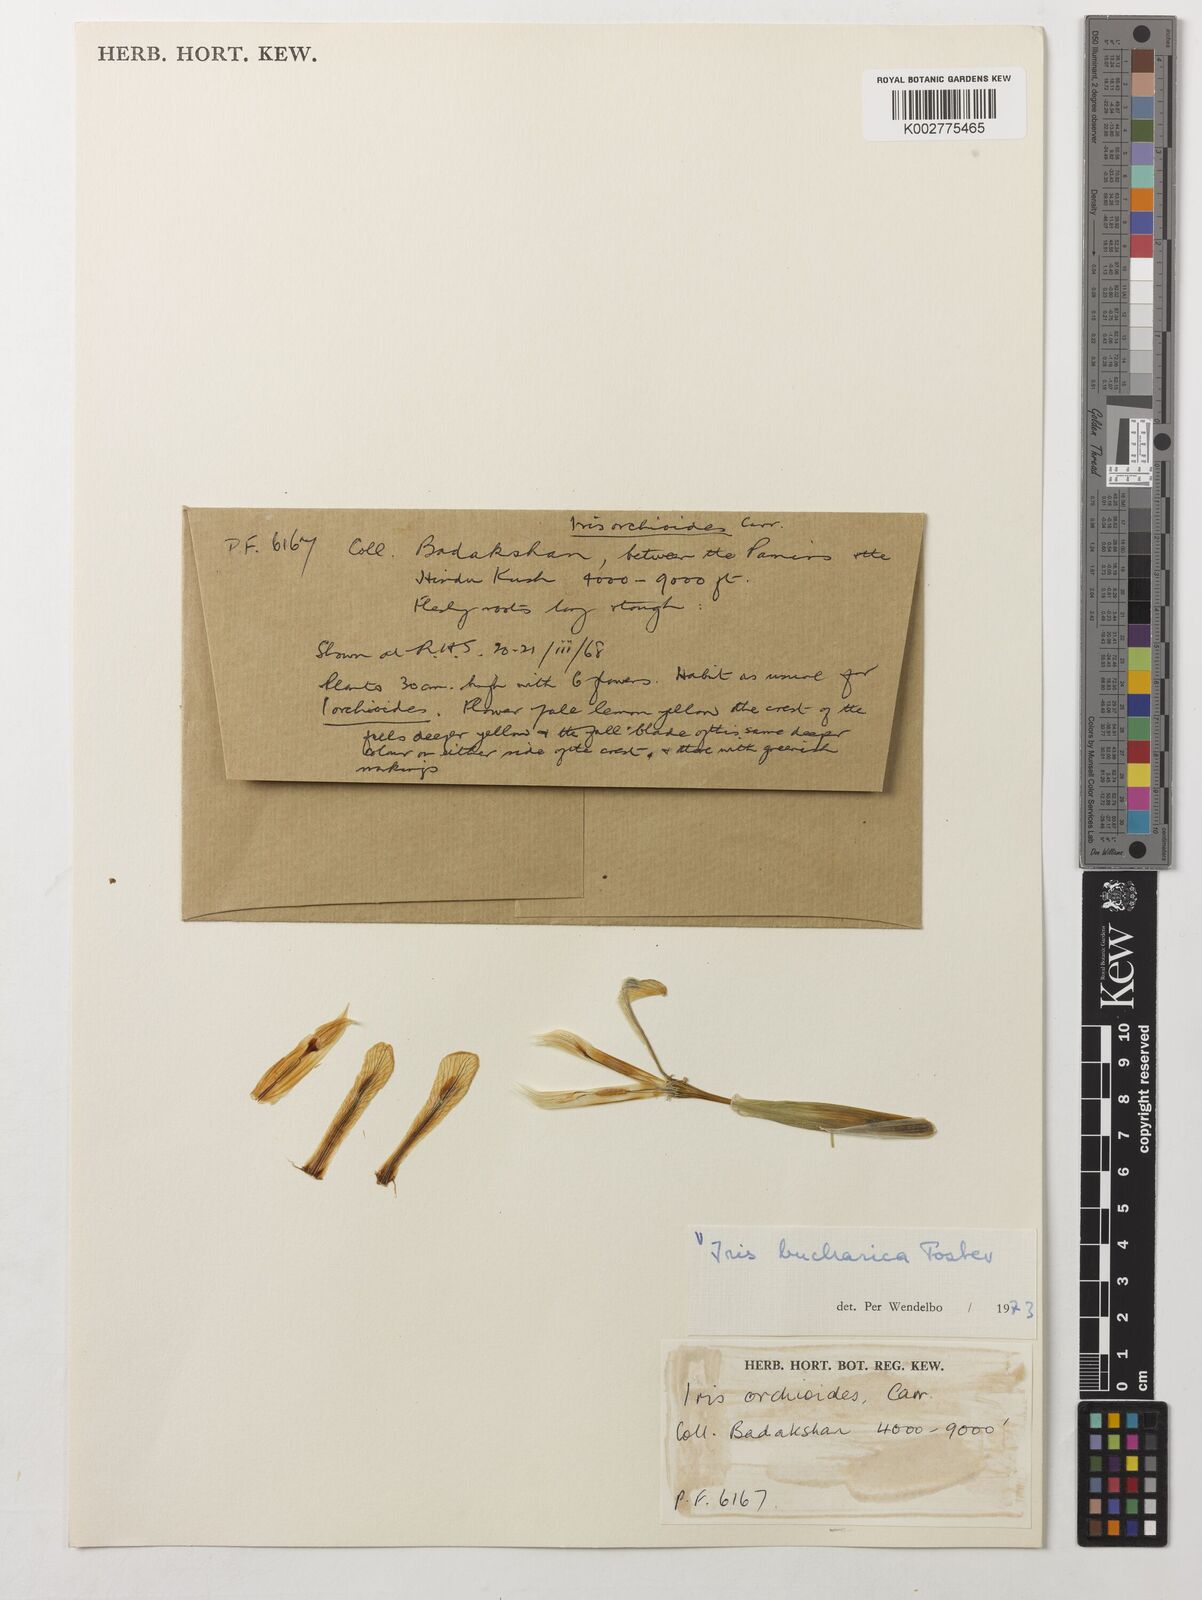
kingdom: Plantae
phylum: Tracheophyta
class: Liliopsida
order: Asparagales
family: Iridaceae
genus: Iris
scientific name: Iris bucharica
